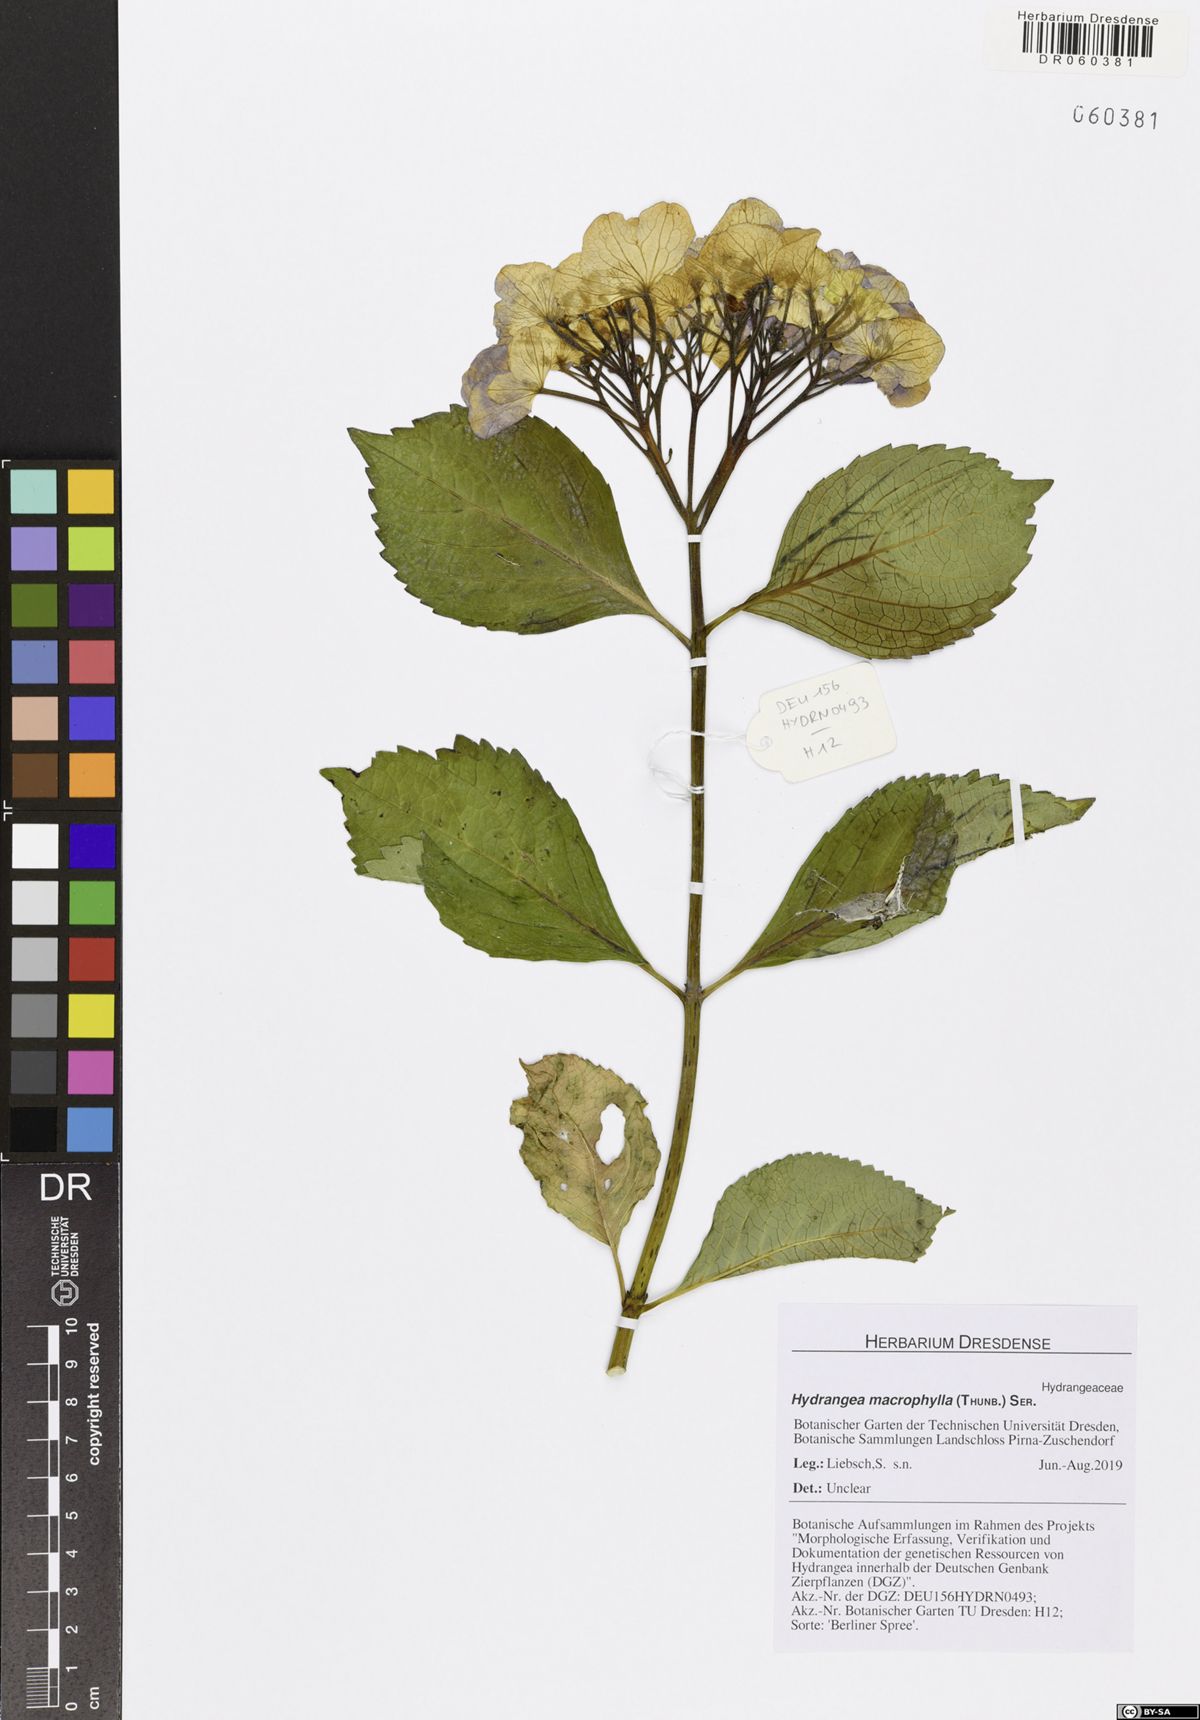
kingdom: Plantae
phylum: Tracheophyta
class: Magnoliopsida
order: Cornales
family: Hydrangeaceae
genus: Hydrangea
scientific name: Hydrangea macrophylla
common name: Hydrangea
